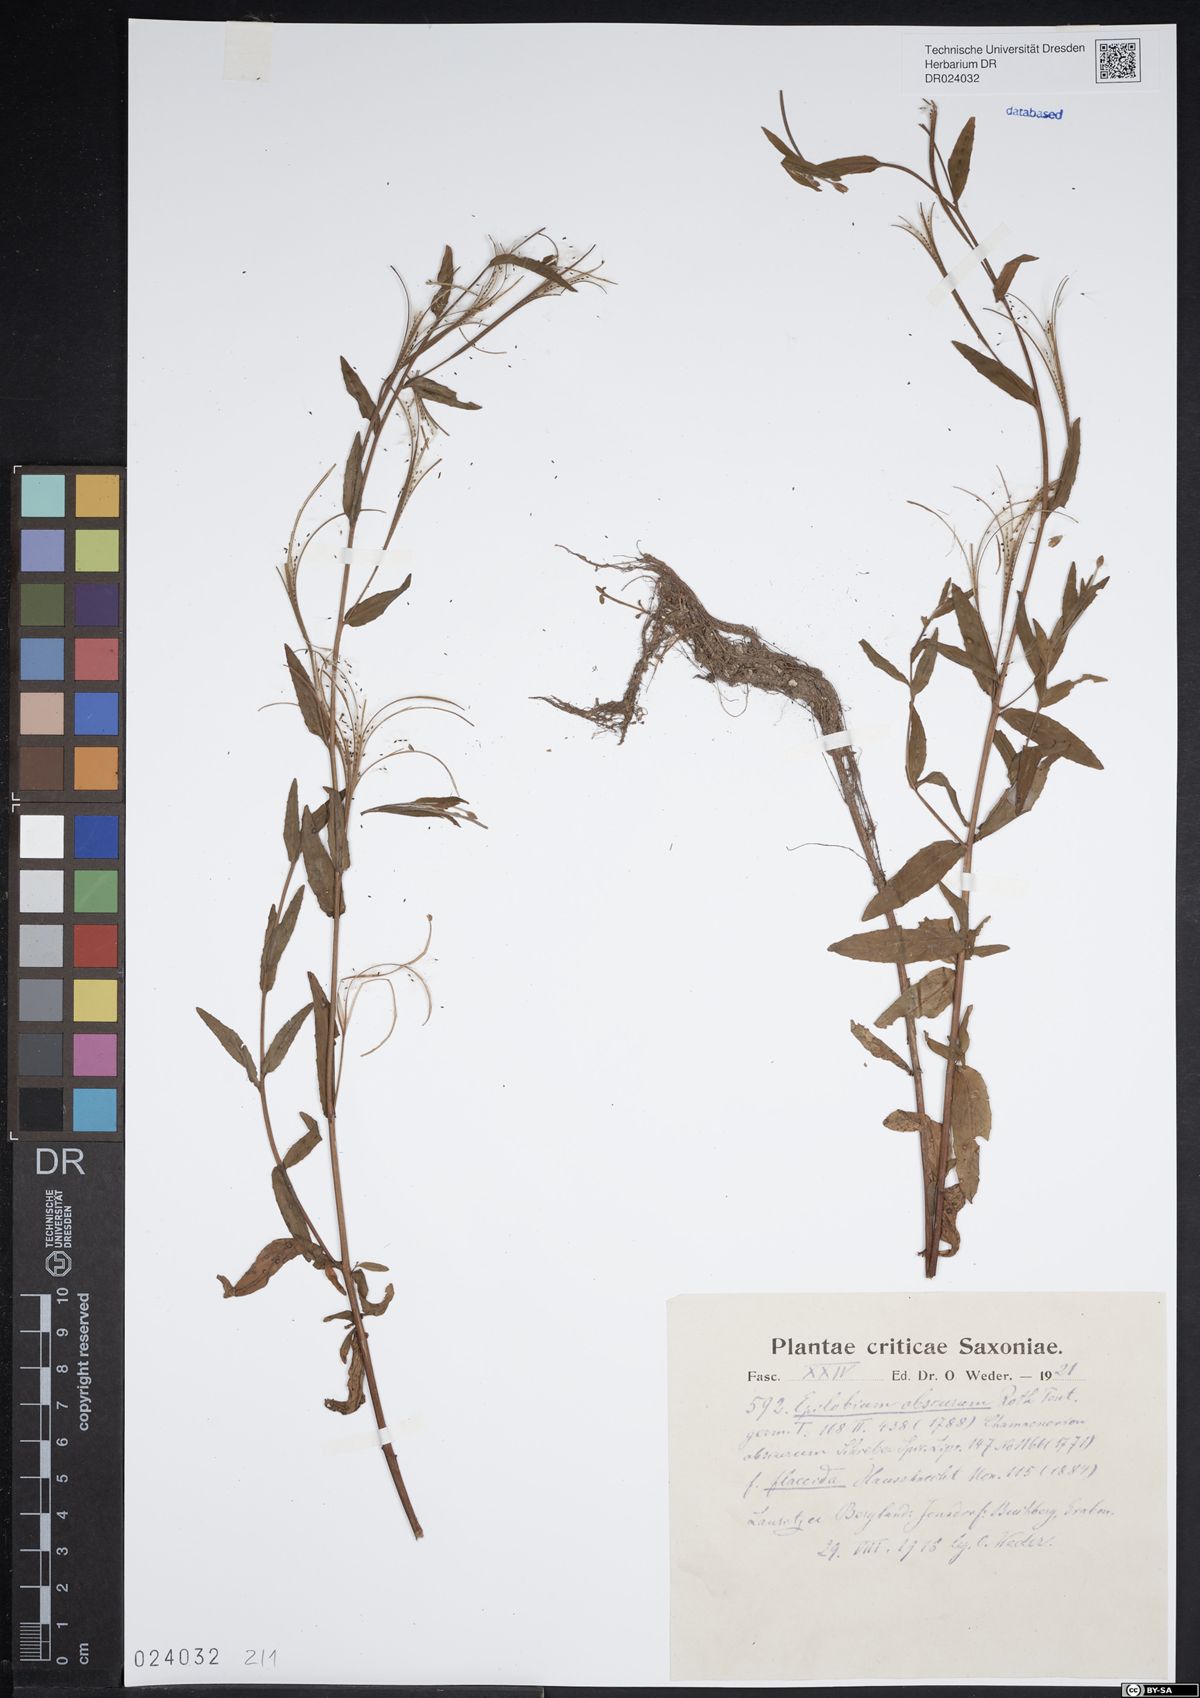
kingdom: Plantae
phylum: Tracheophyta
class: Magnoliopsida
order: Myrtales
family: Onagraceae
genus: Epilobium
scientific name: Epilobium obscurum
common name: Short-fruited willowherb
